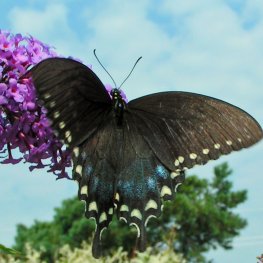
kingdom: Animalia
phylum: Arthropoda
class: Insecta
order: Lepidoptera
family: Papilionidae
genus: Pterourus
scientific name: Pterourus troilus
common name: Spicebush Swallowtail
